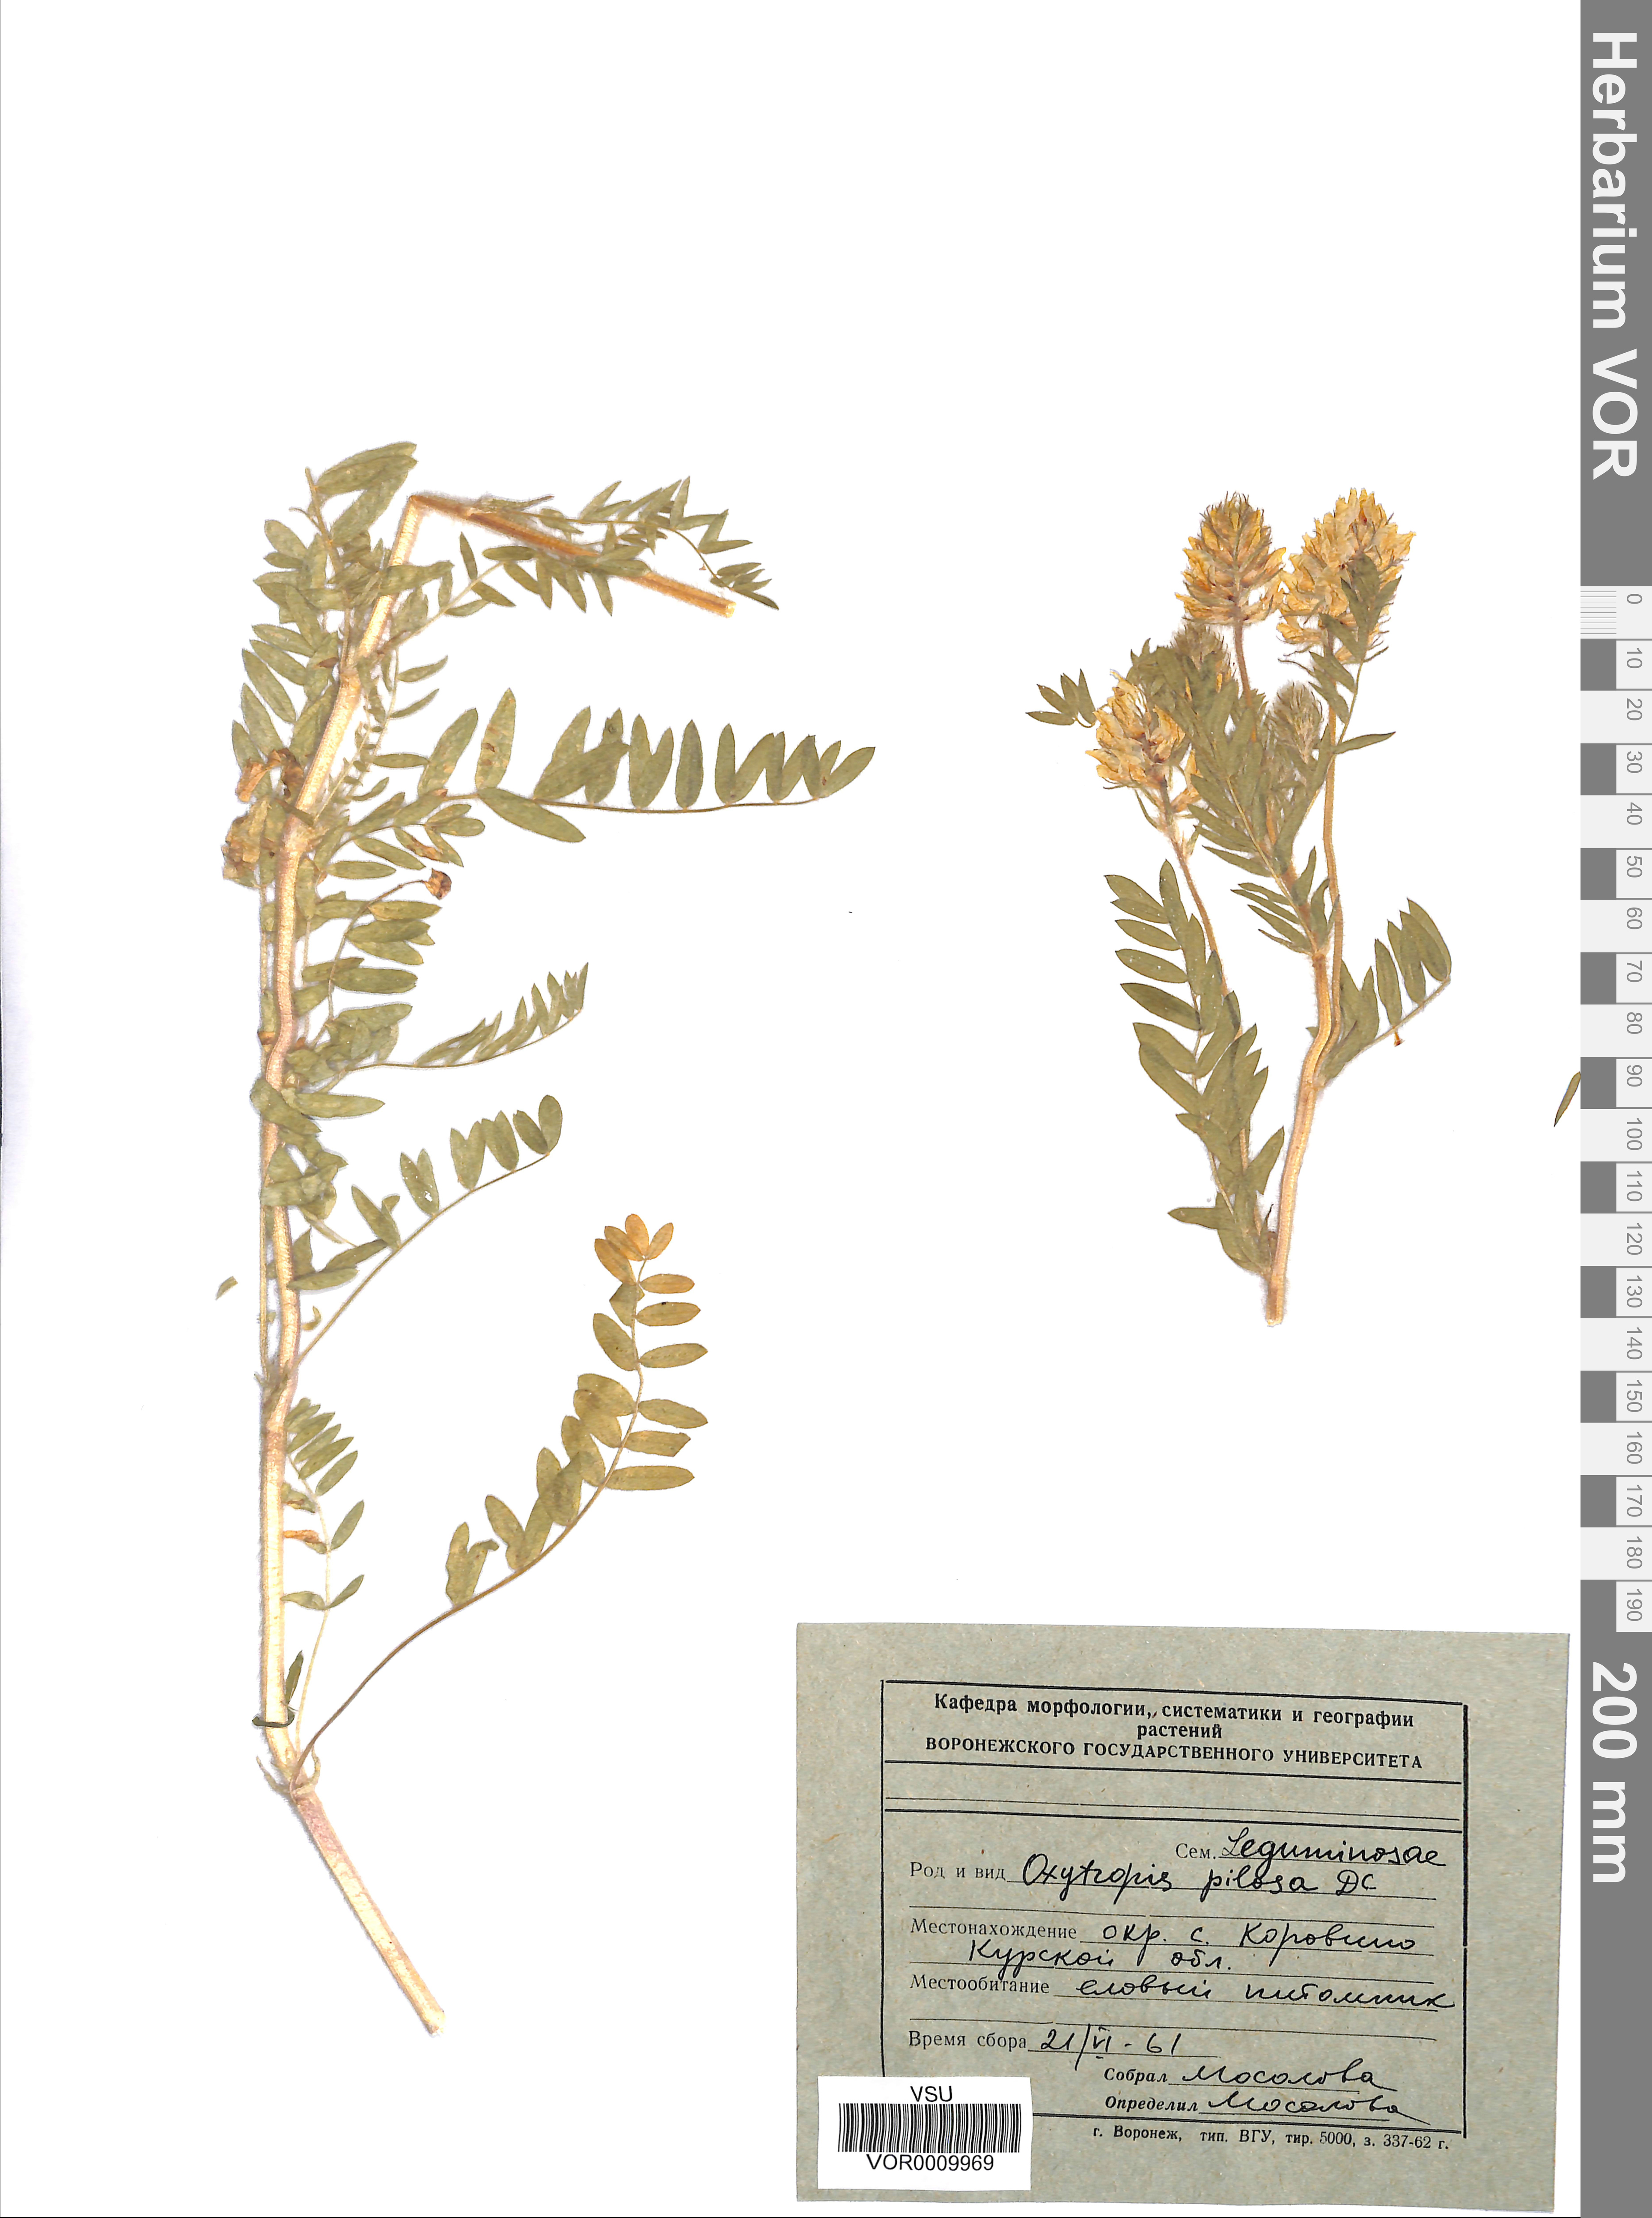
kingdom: Plantae
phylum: Tracheophyta
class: Magnoliopsida
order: Fabales
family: Fabaceae
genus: Oxytropis
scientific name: Oxytropis pilosa
